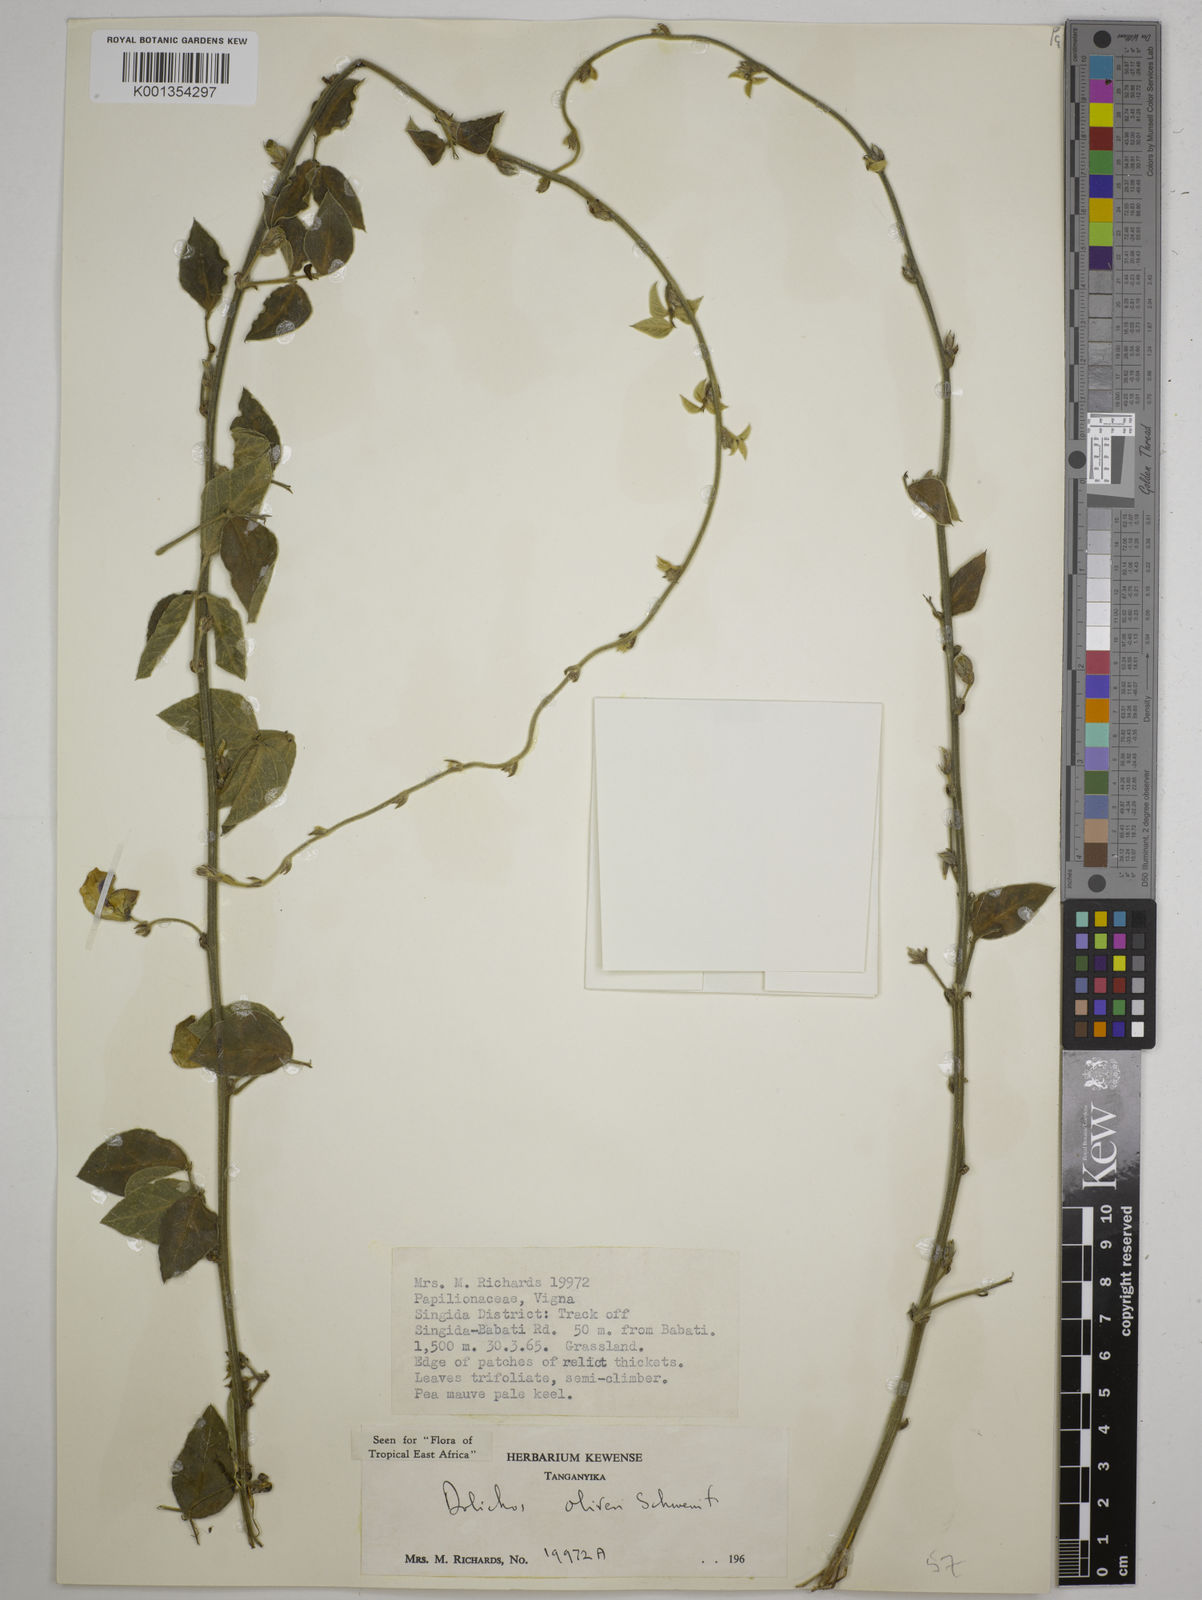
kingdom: Plantae
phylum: Tracheophyta
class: Magnoliopsida
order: Fabales
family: Fabaceae
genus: Dolichos
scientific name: Dolichos oliveri
